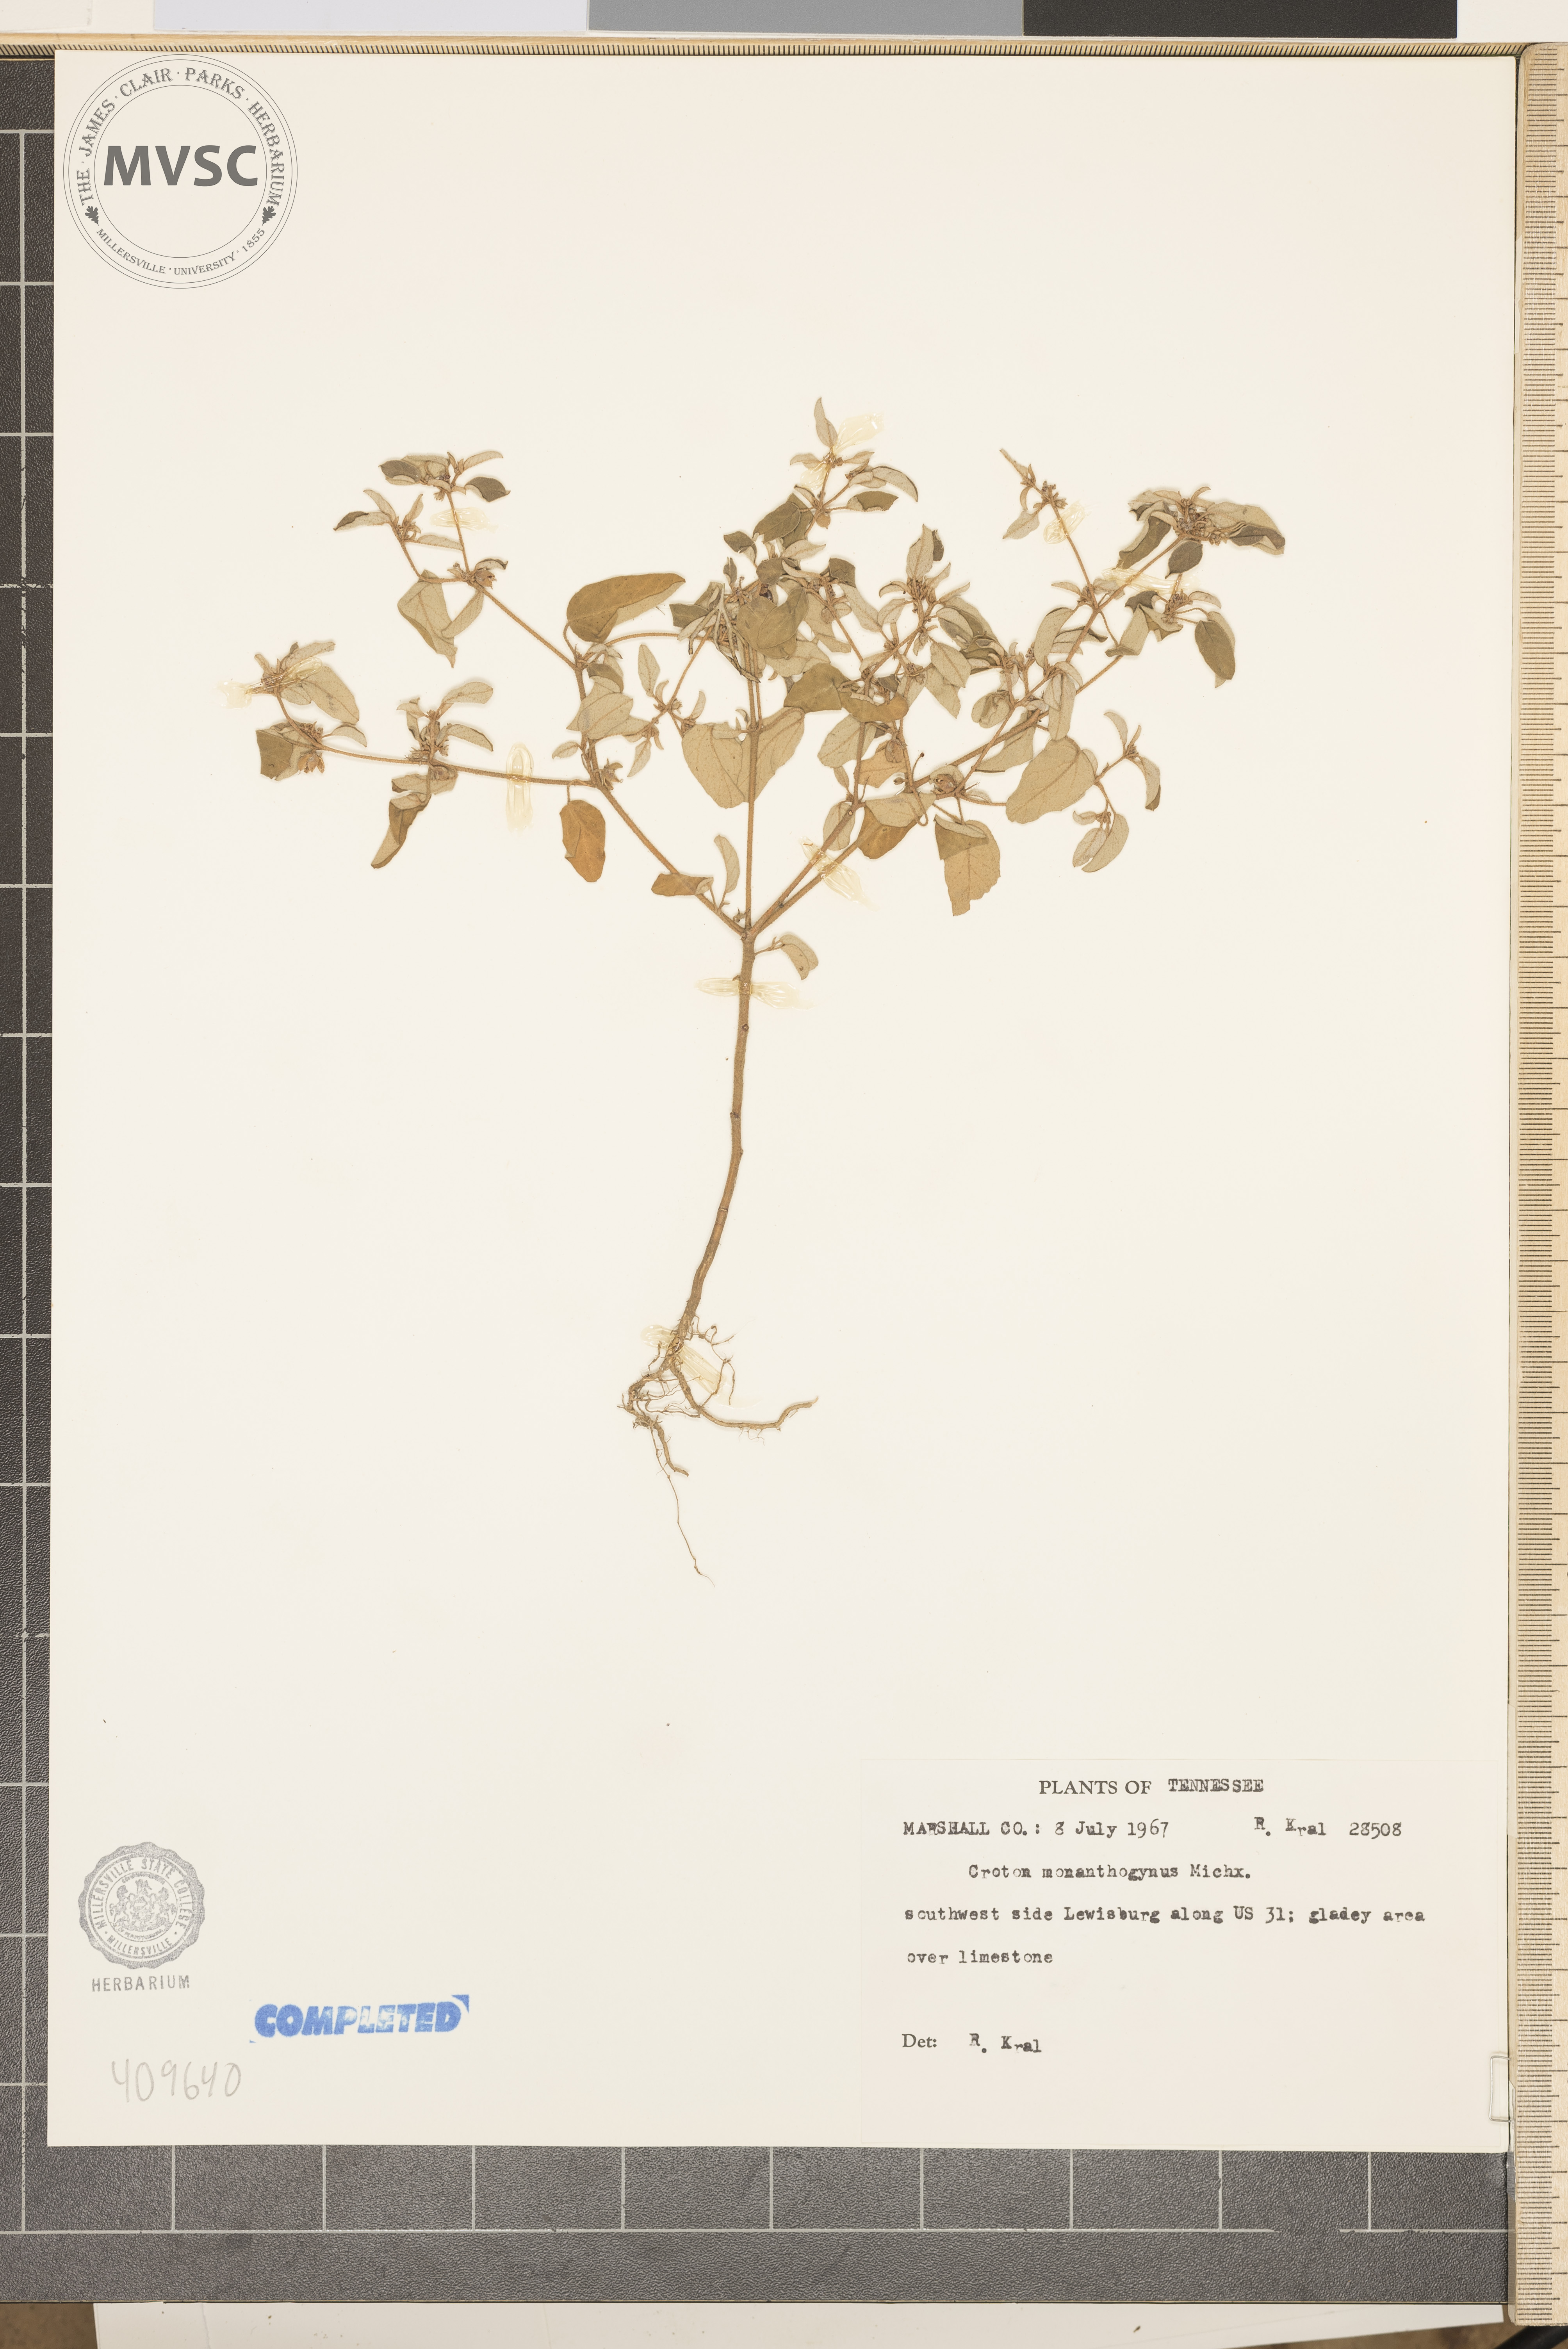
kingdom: Plantae
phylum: Tracheophyta
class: Magnoliopsida
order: Malpighiales
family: Euphorbiaceae
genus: Croton
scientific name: Croton monanthogynus
